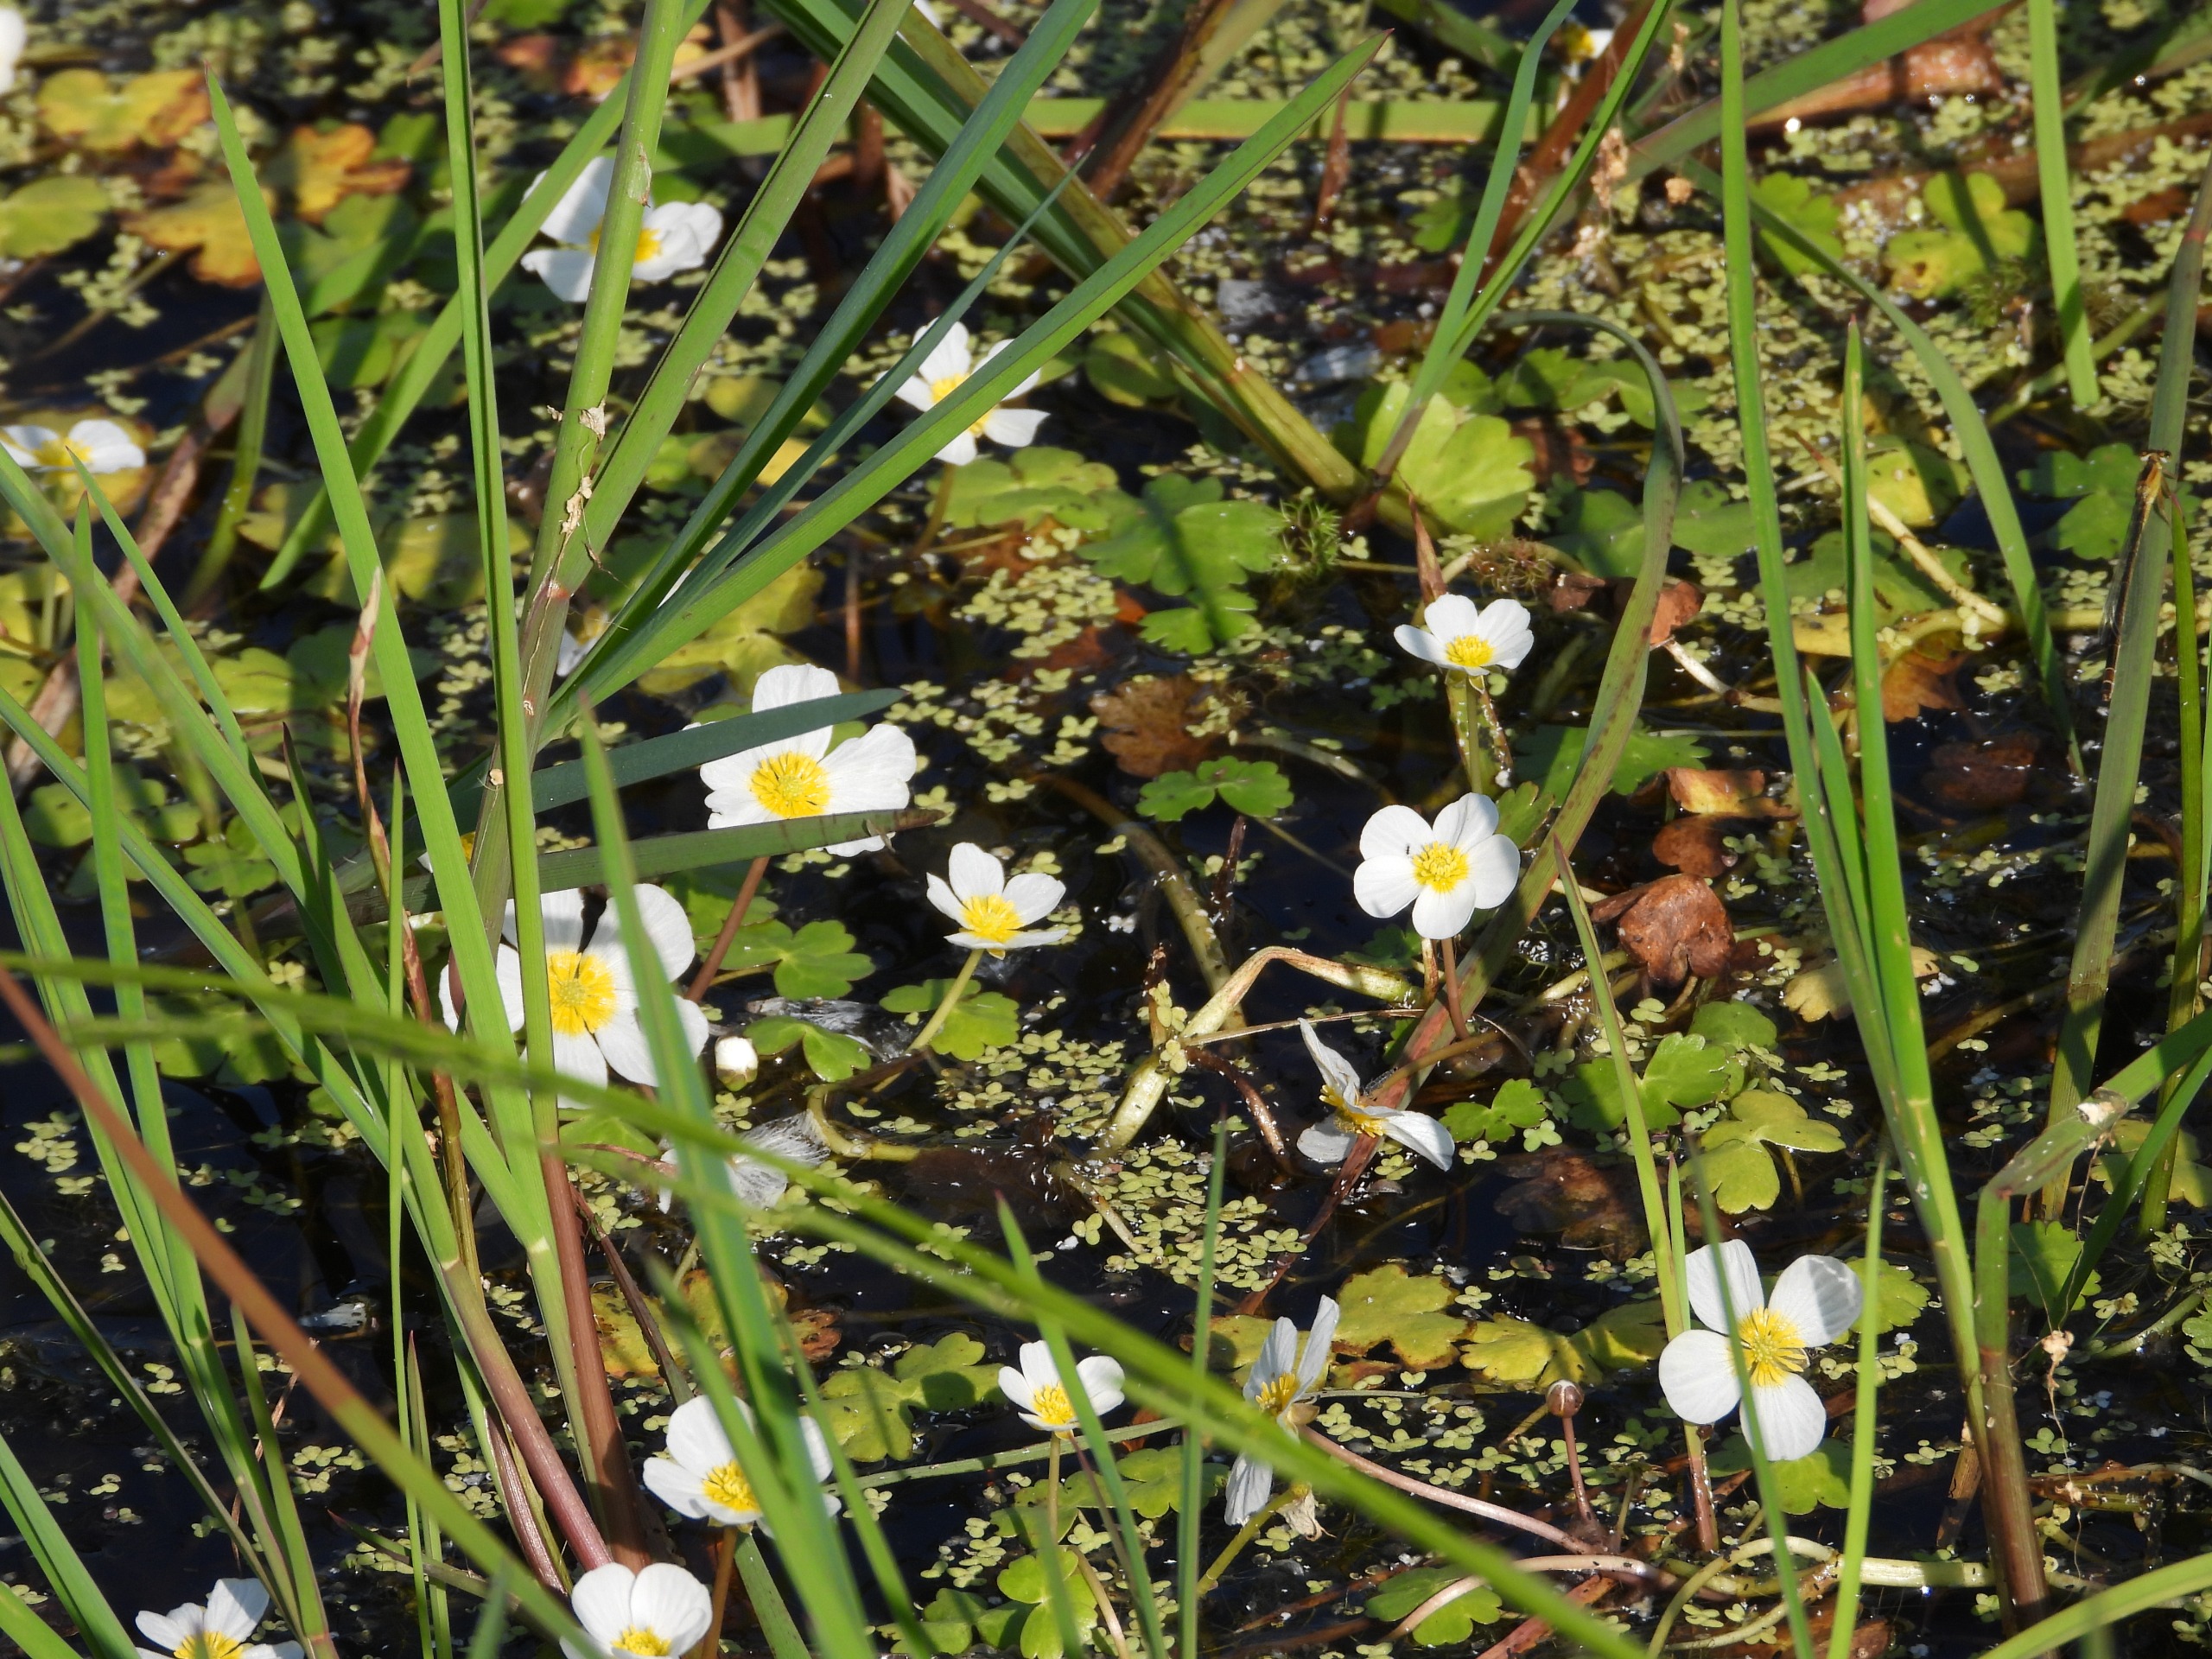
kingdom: Plantae
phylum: Tracheophyta
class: Magnoliopsida
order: Ranunculales
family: Ranunculaceae
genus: Ranunculus
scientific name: Ranunculus peltatus
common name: Storblomstret vandranunkel
